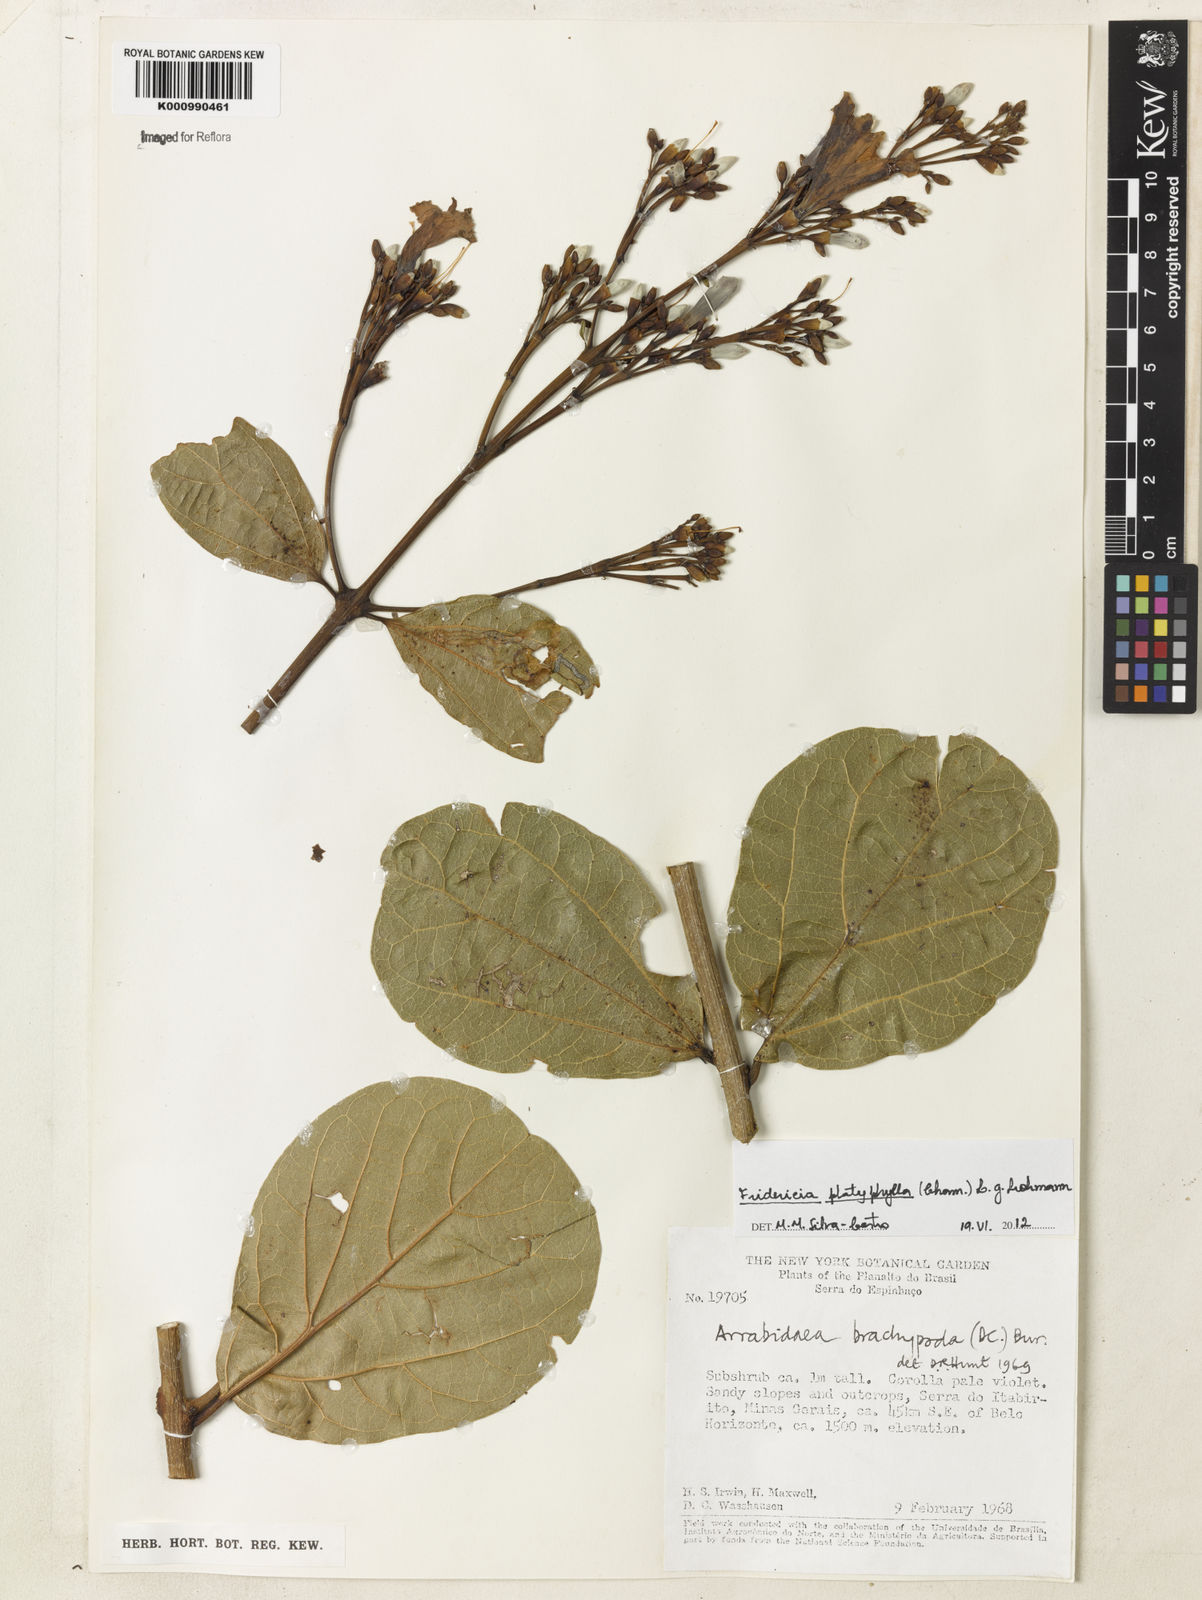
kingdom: Plantae
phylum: Tracheophyta
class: Magnoliopsida
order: Lamiales
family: Bignoniaceae
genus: Fridericia
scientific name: Fridericia platyphylla
